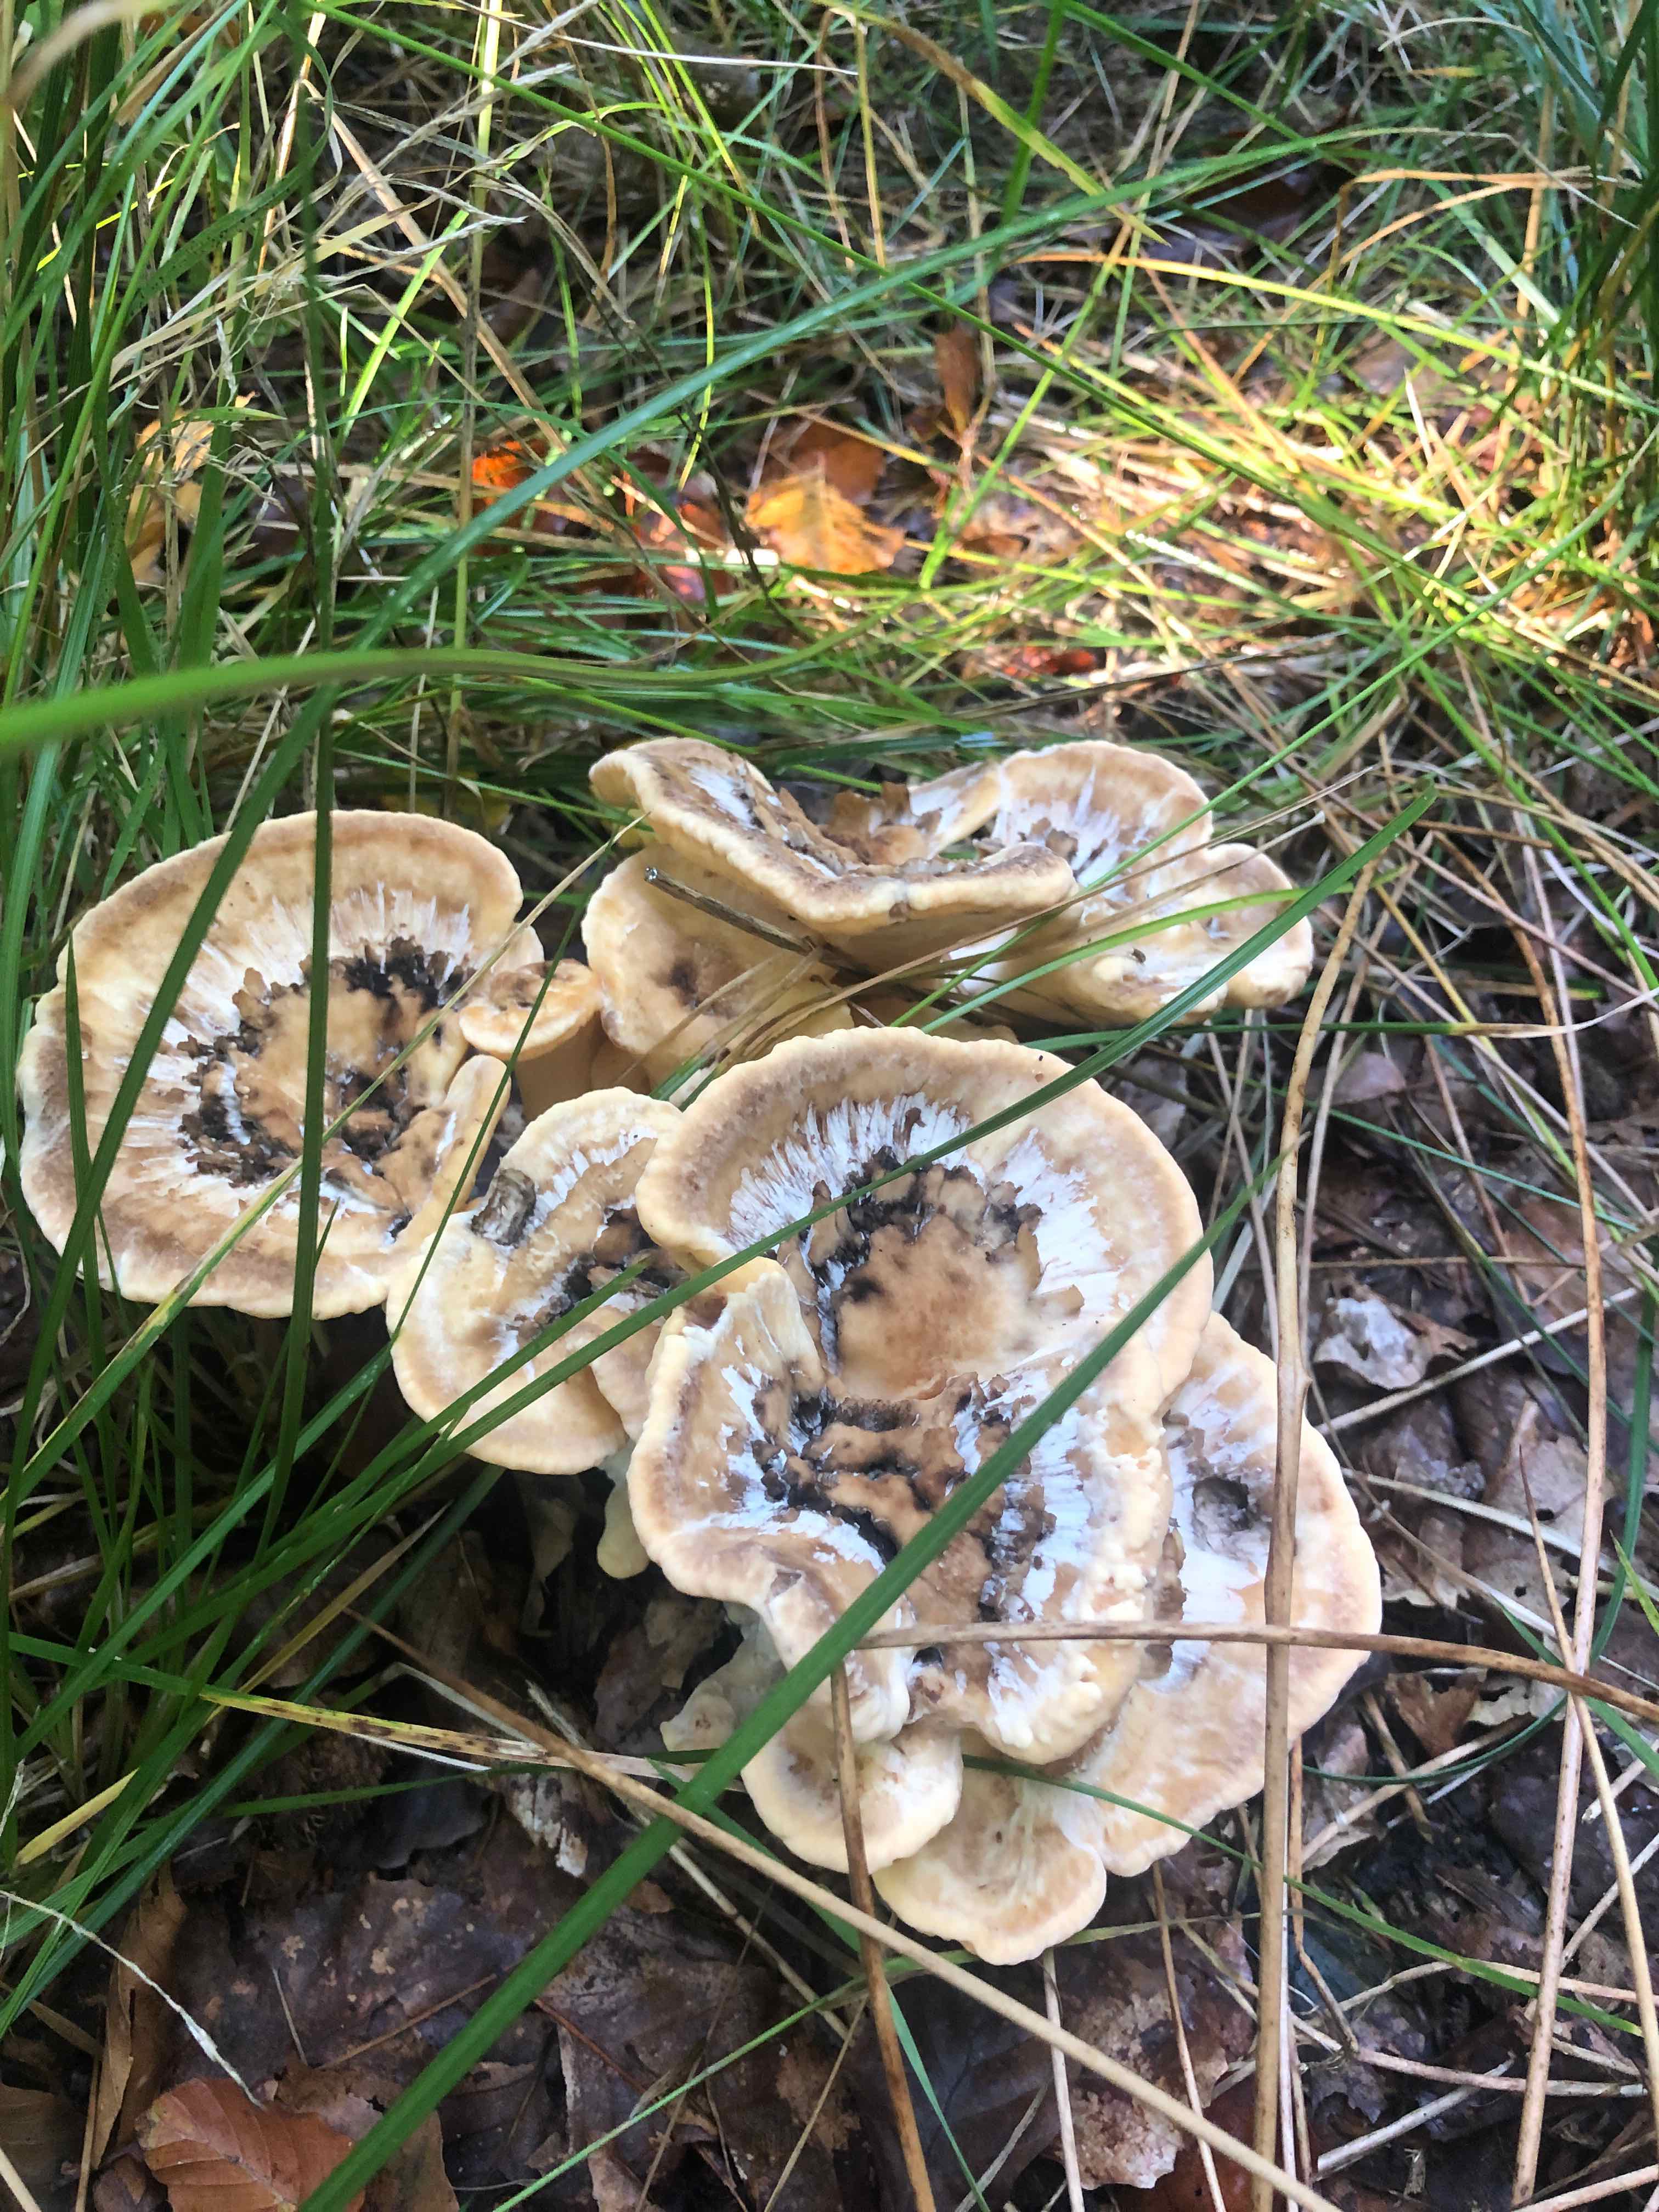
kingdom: Fungi
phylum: Basidiomycota
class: Agaricomycetes
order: Polyporales
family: Meripilaceae
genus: Meripilus
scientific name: Meripilus giganteus
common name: kæmpeporesvamp
